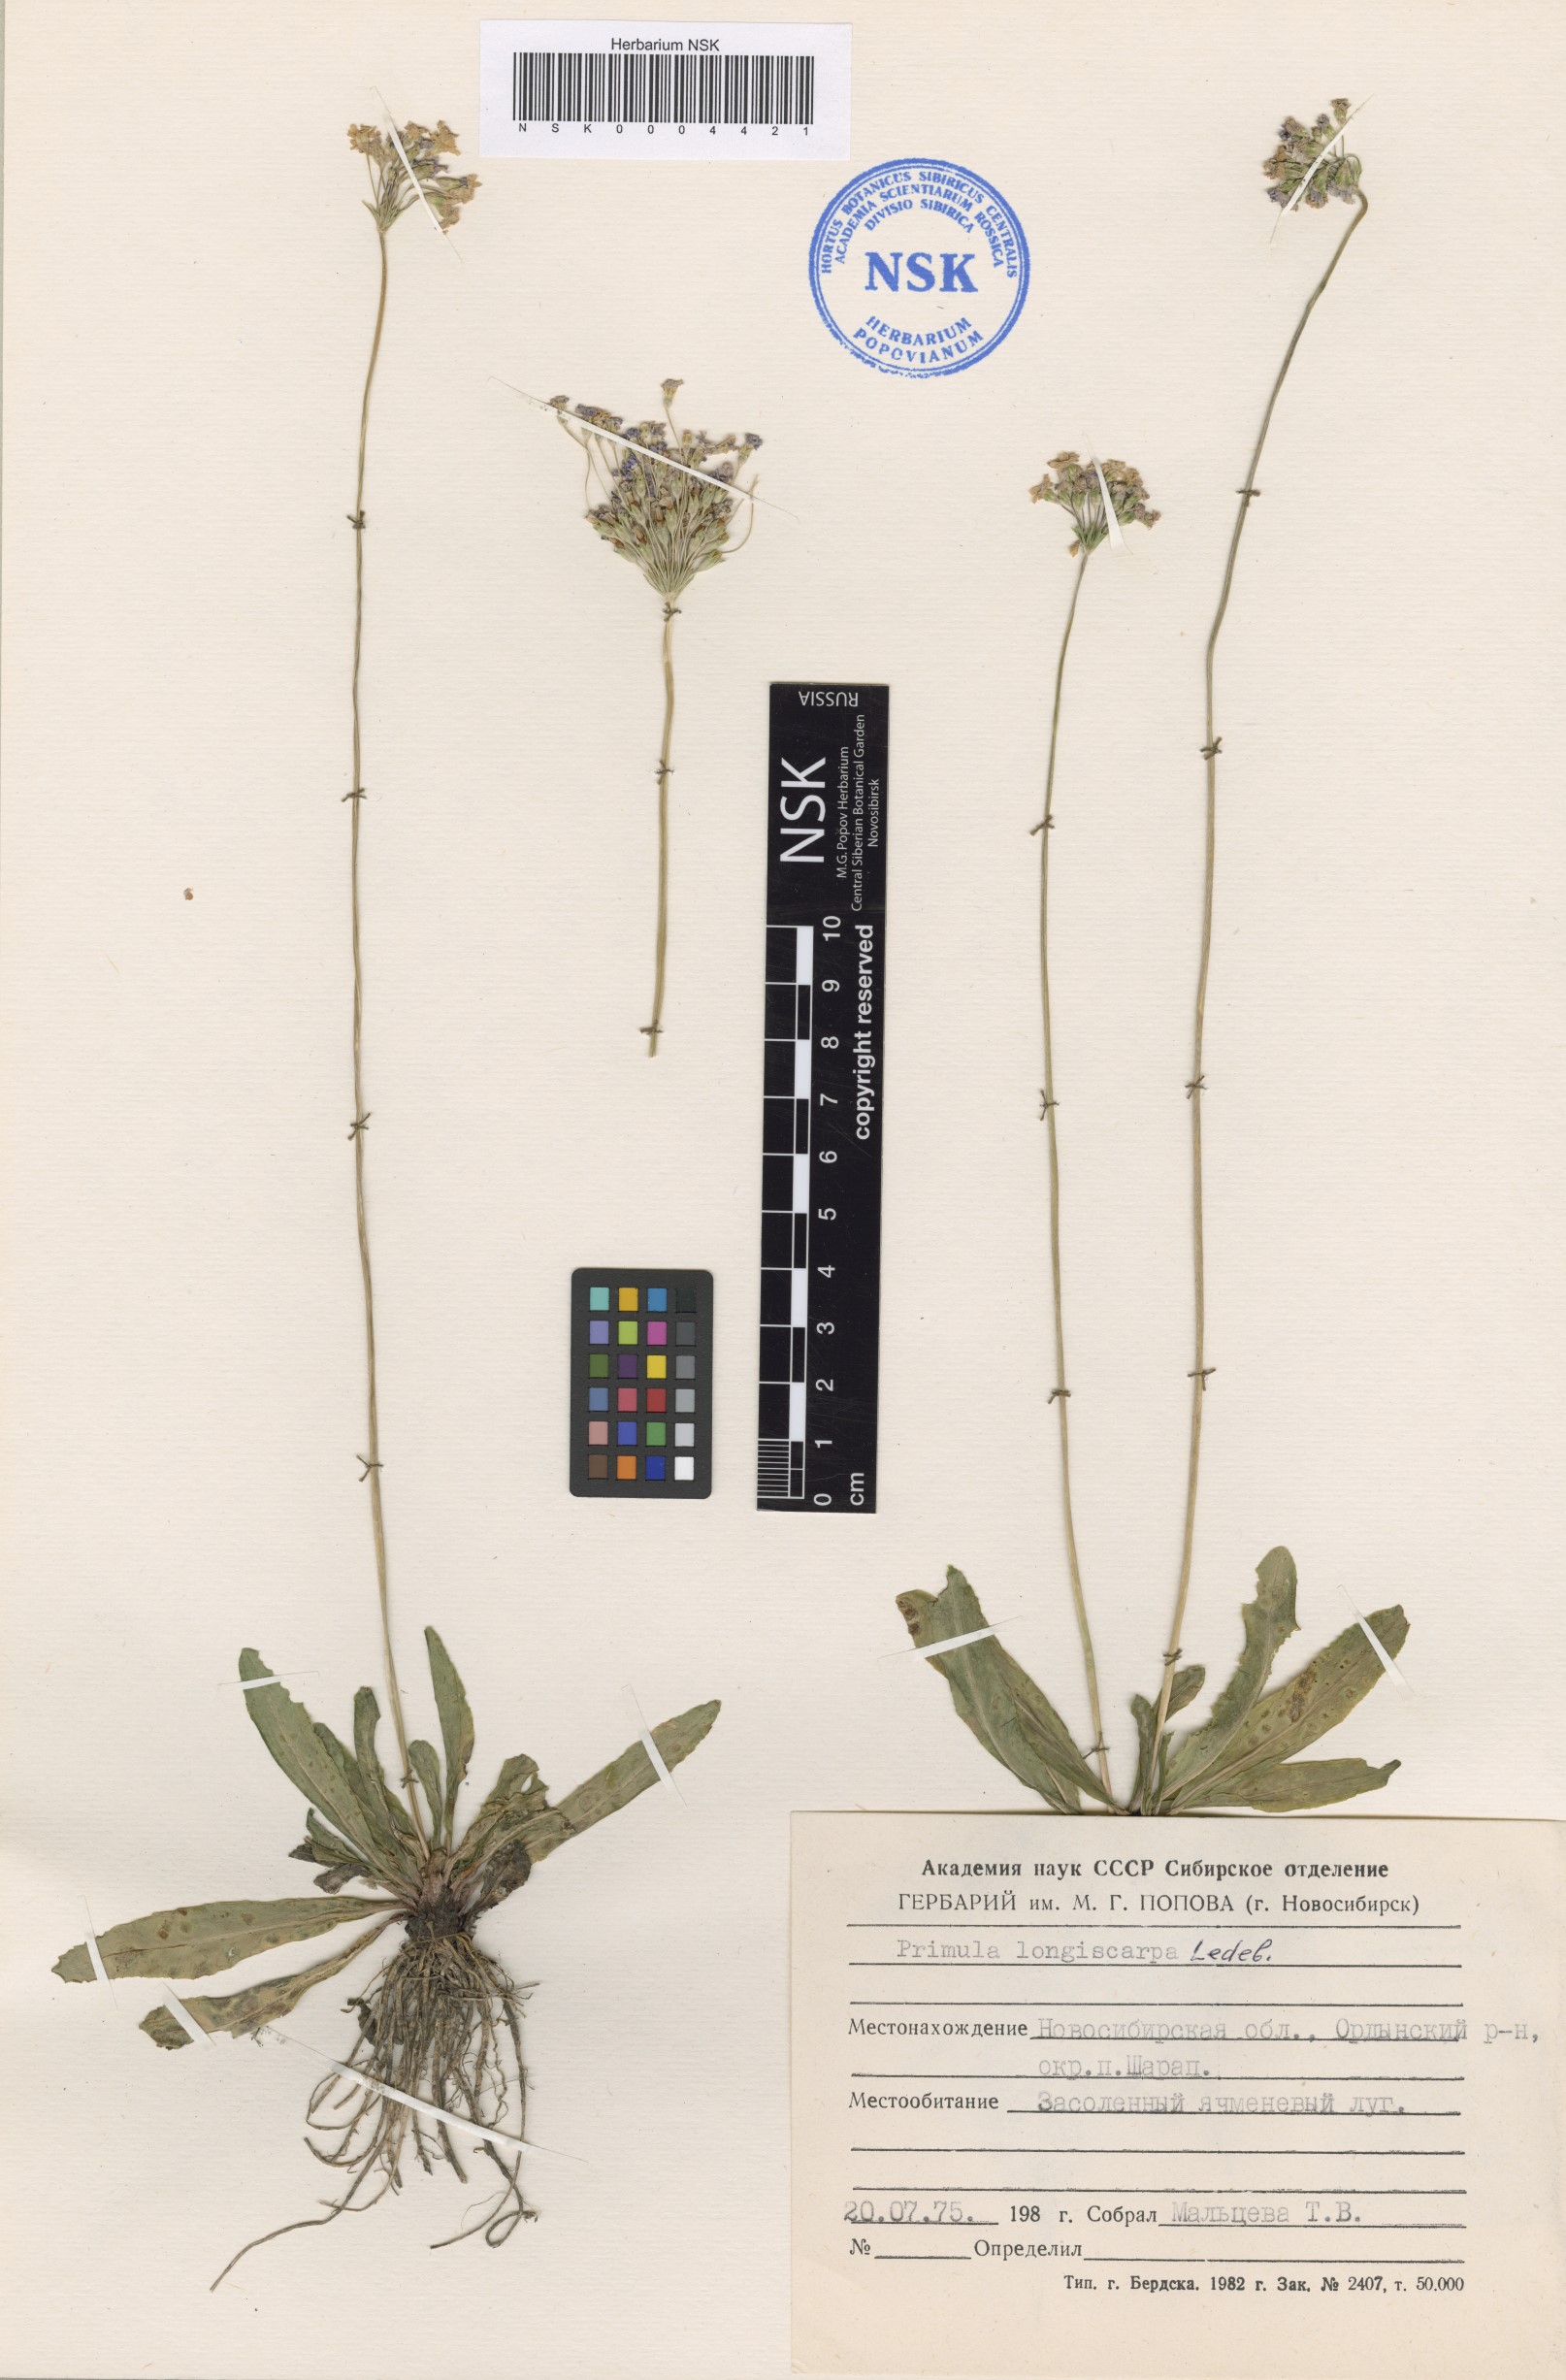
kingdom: Plantae
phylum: Tracheophyta
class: Magnoliopsida
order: Ericales
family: Primulaceae
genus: Primula
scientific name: Primula longiscapa
